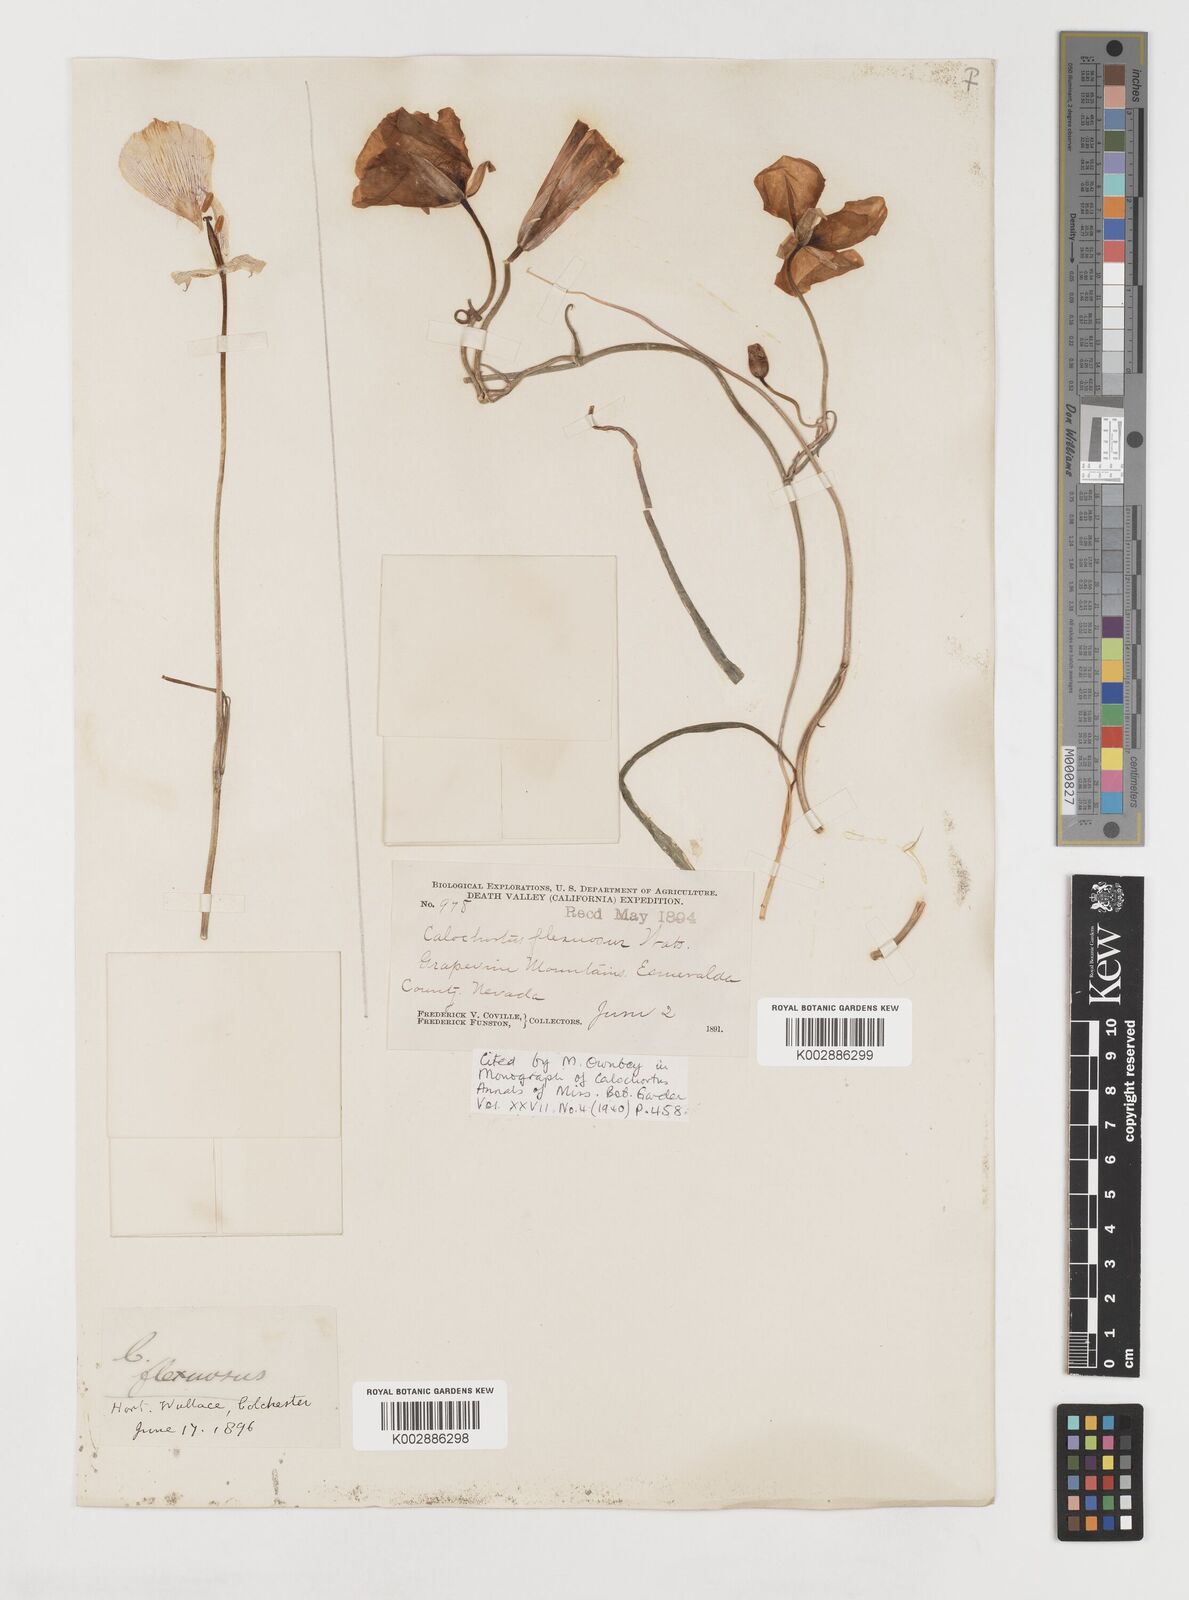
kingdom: Plantae
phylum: Tracheophyta
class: Liliopsida
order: Liliales
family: Liliaceae
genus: Calochortus
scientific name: Calochortus flexuosus
